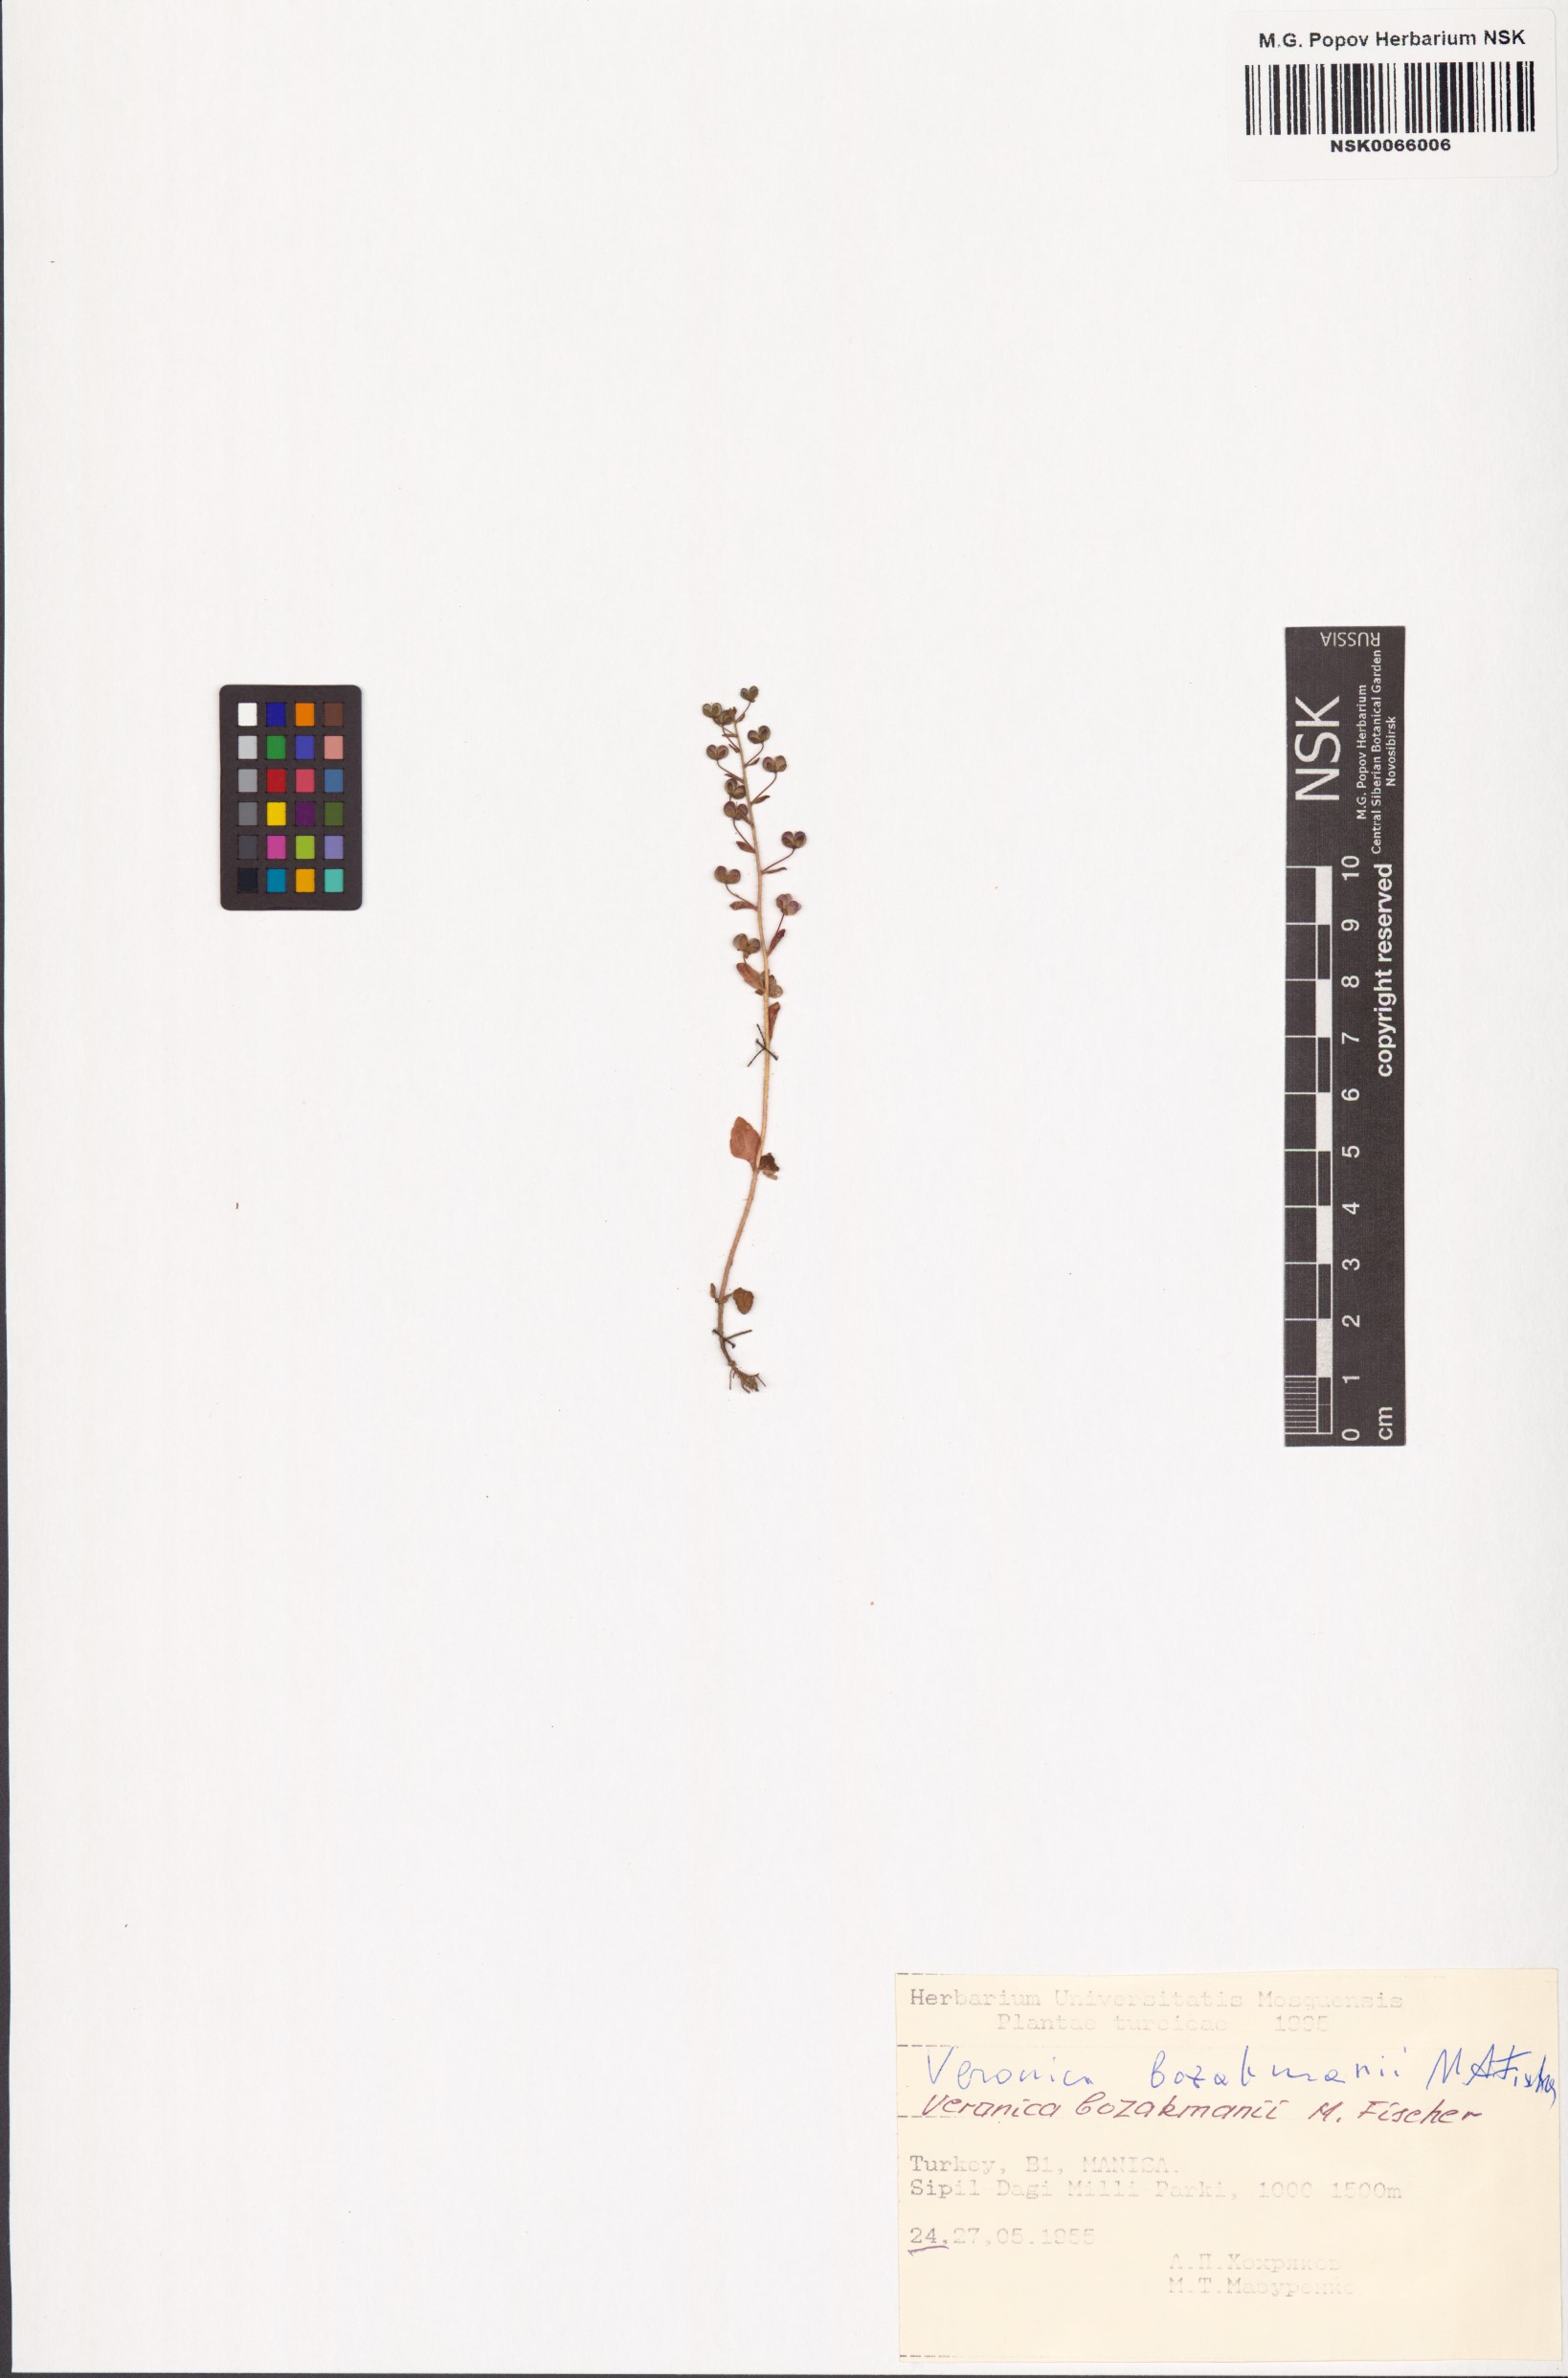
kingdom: Plantae
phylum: Tracheophyta
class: Magnoliopsida
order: Lamiales
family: Plantaginaceae
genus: Veronica
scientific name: Veronica bozakmanii
